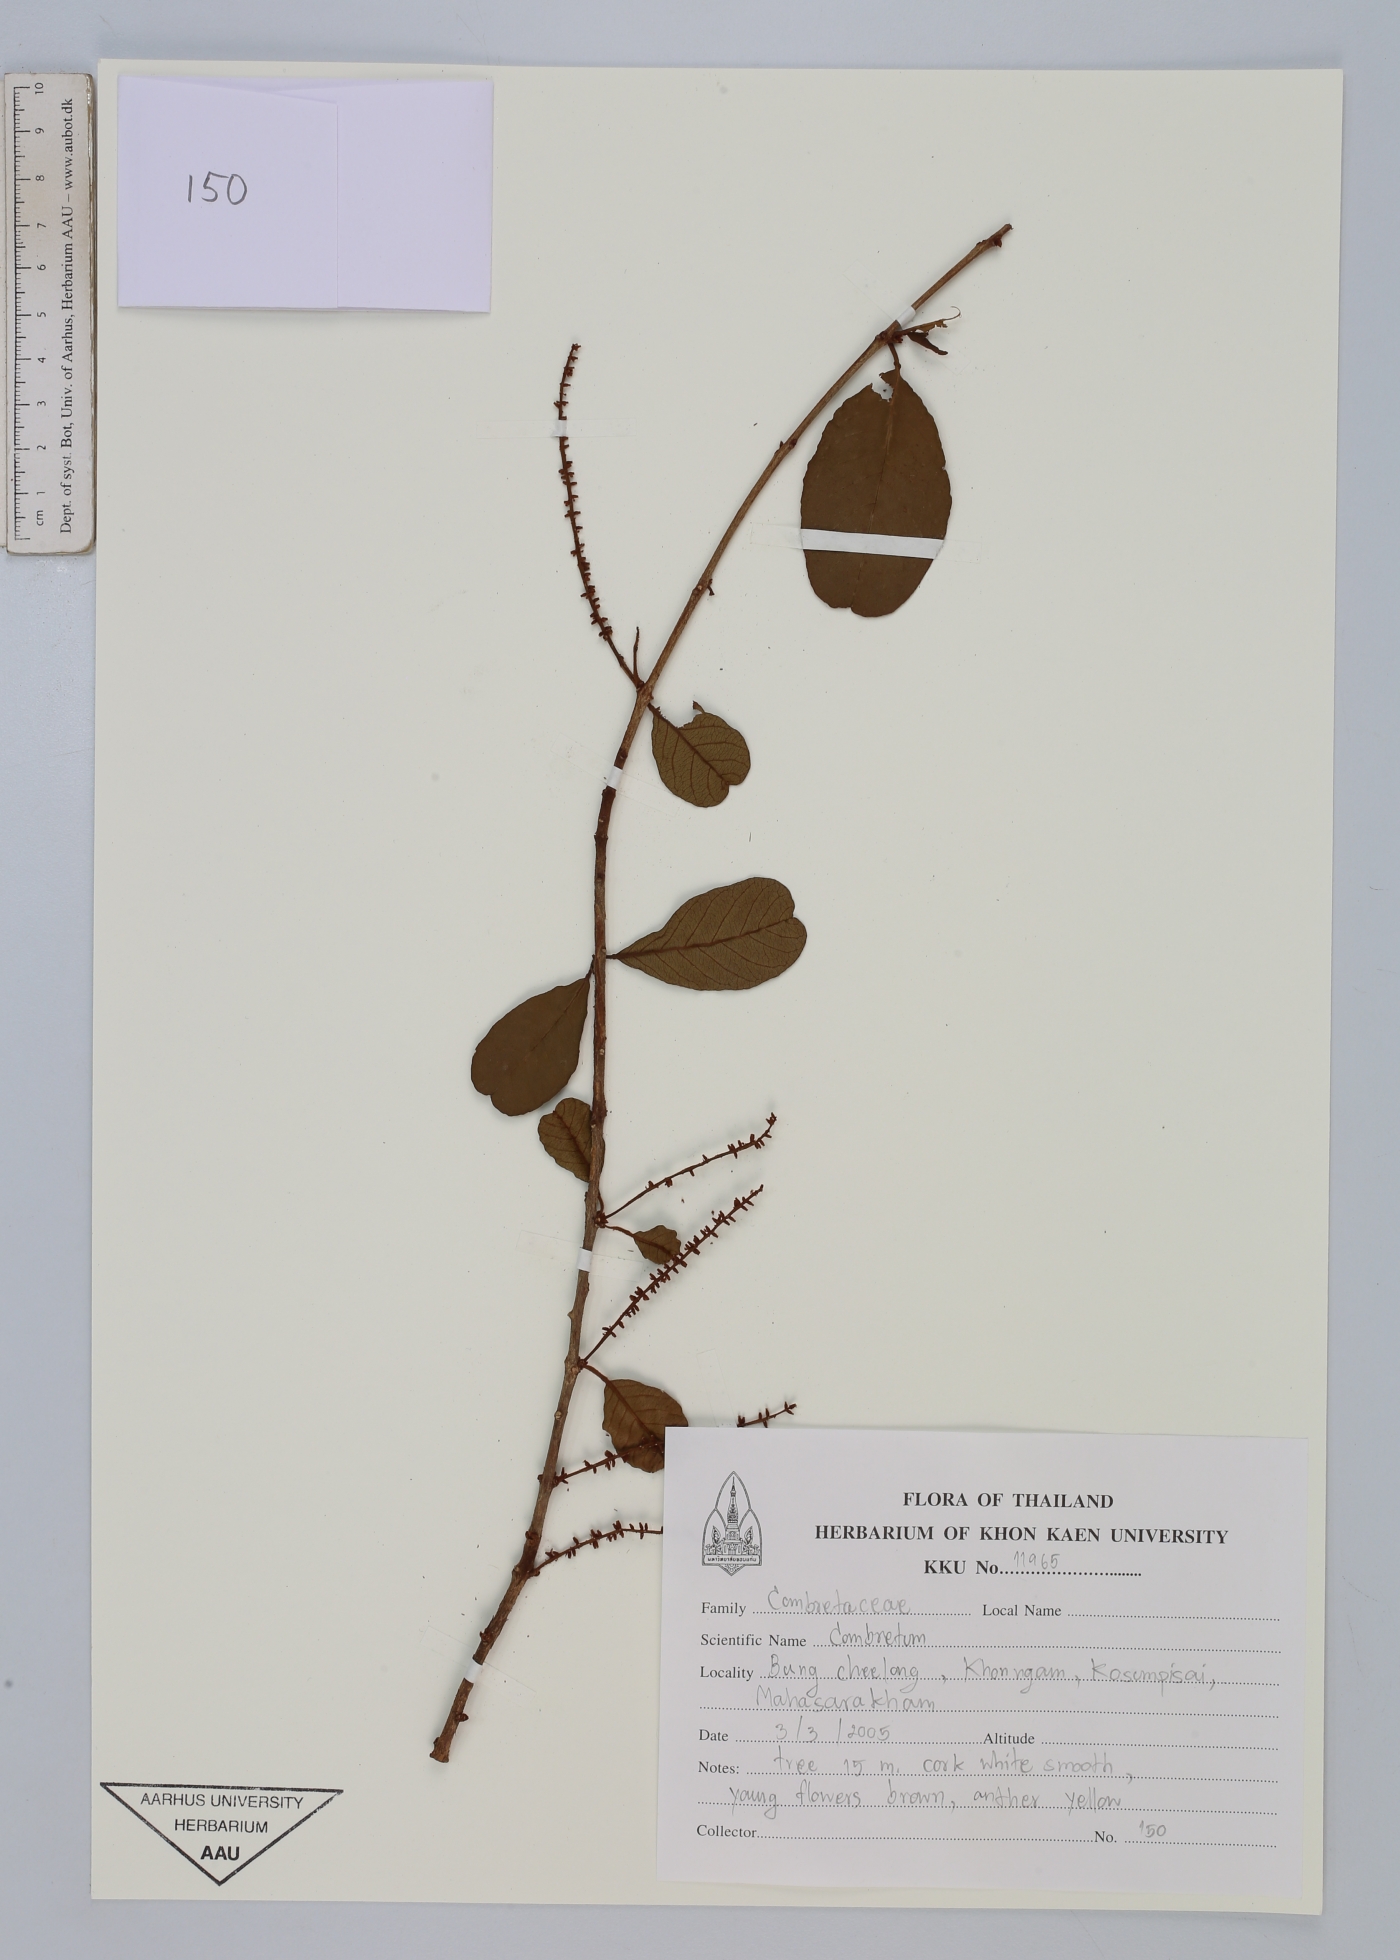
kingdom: Plantae
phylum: Tracheophyta
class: Magnoliopsida
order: Myrtales
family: Combretaceae
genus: Combretum
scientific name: Combretum
